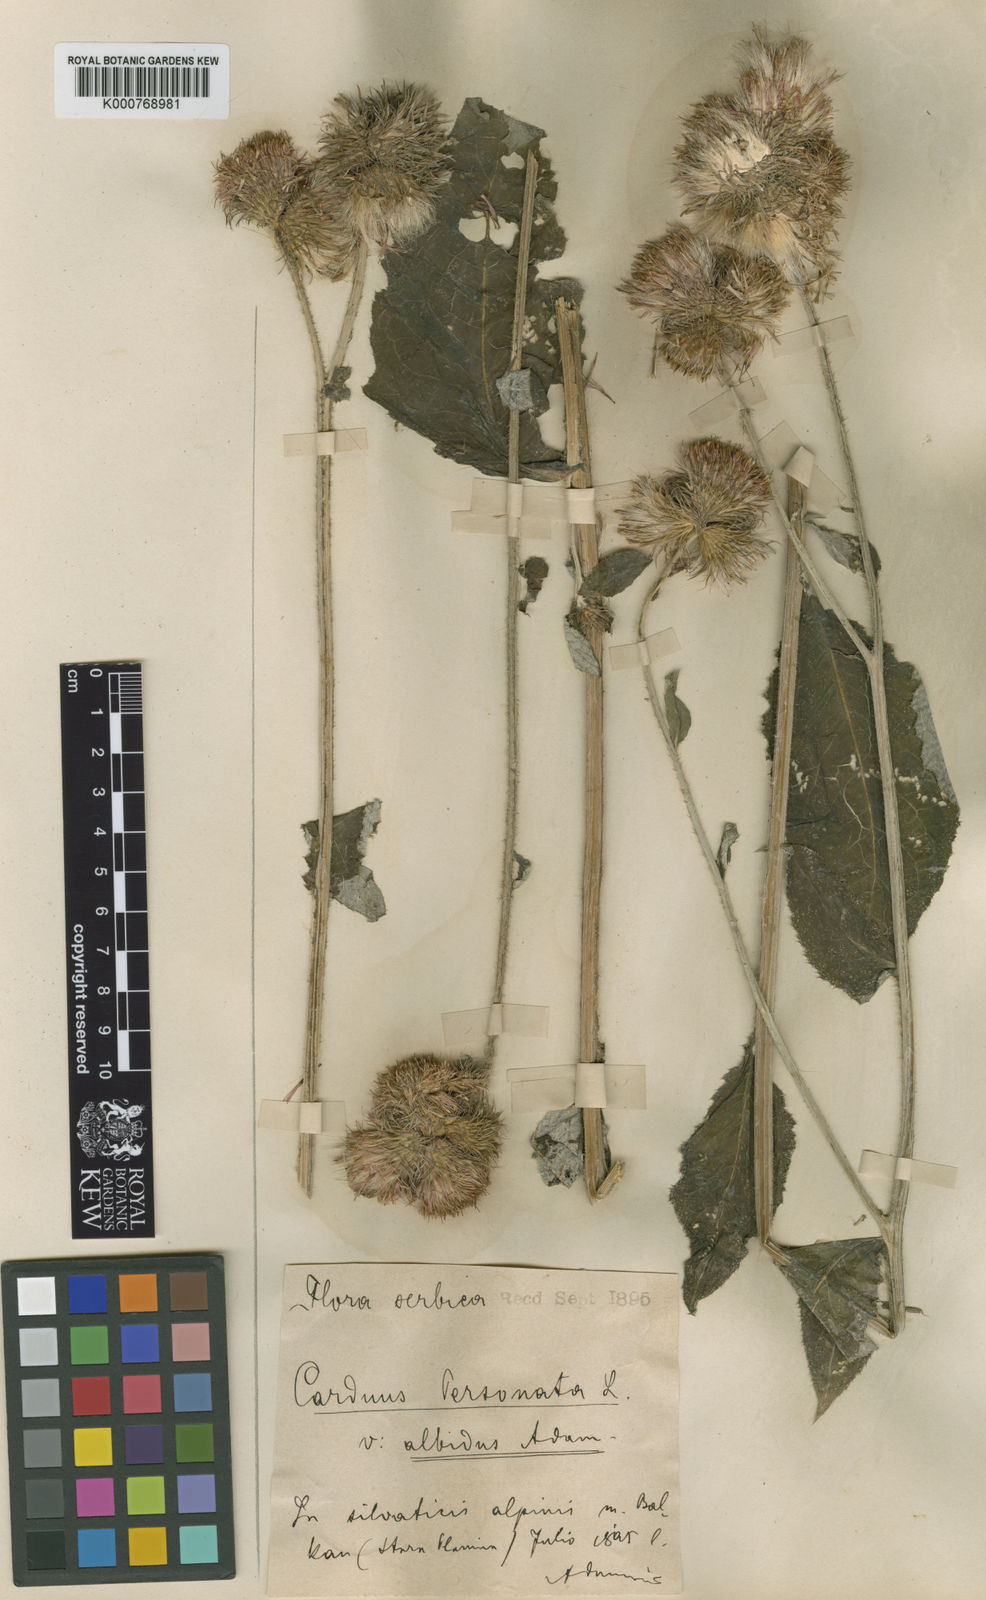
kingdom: Plantae
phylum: Tracheophyta
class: Magnoliopsida
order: Asterales
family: Asteraceae
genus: Carduus
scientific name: Carduus personata
